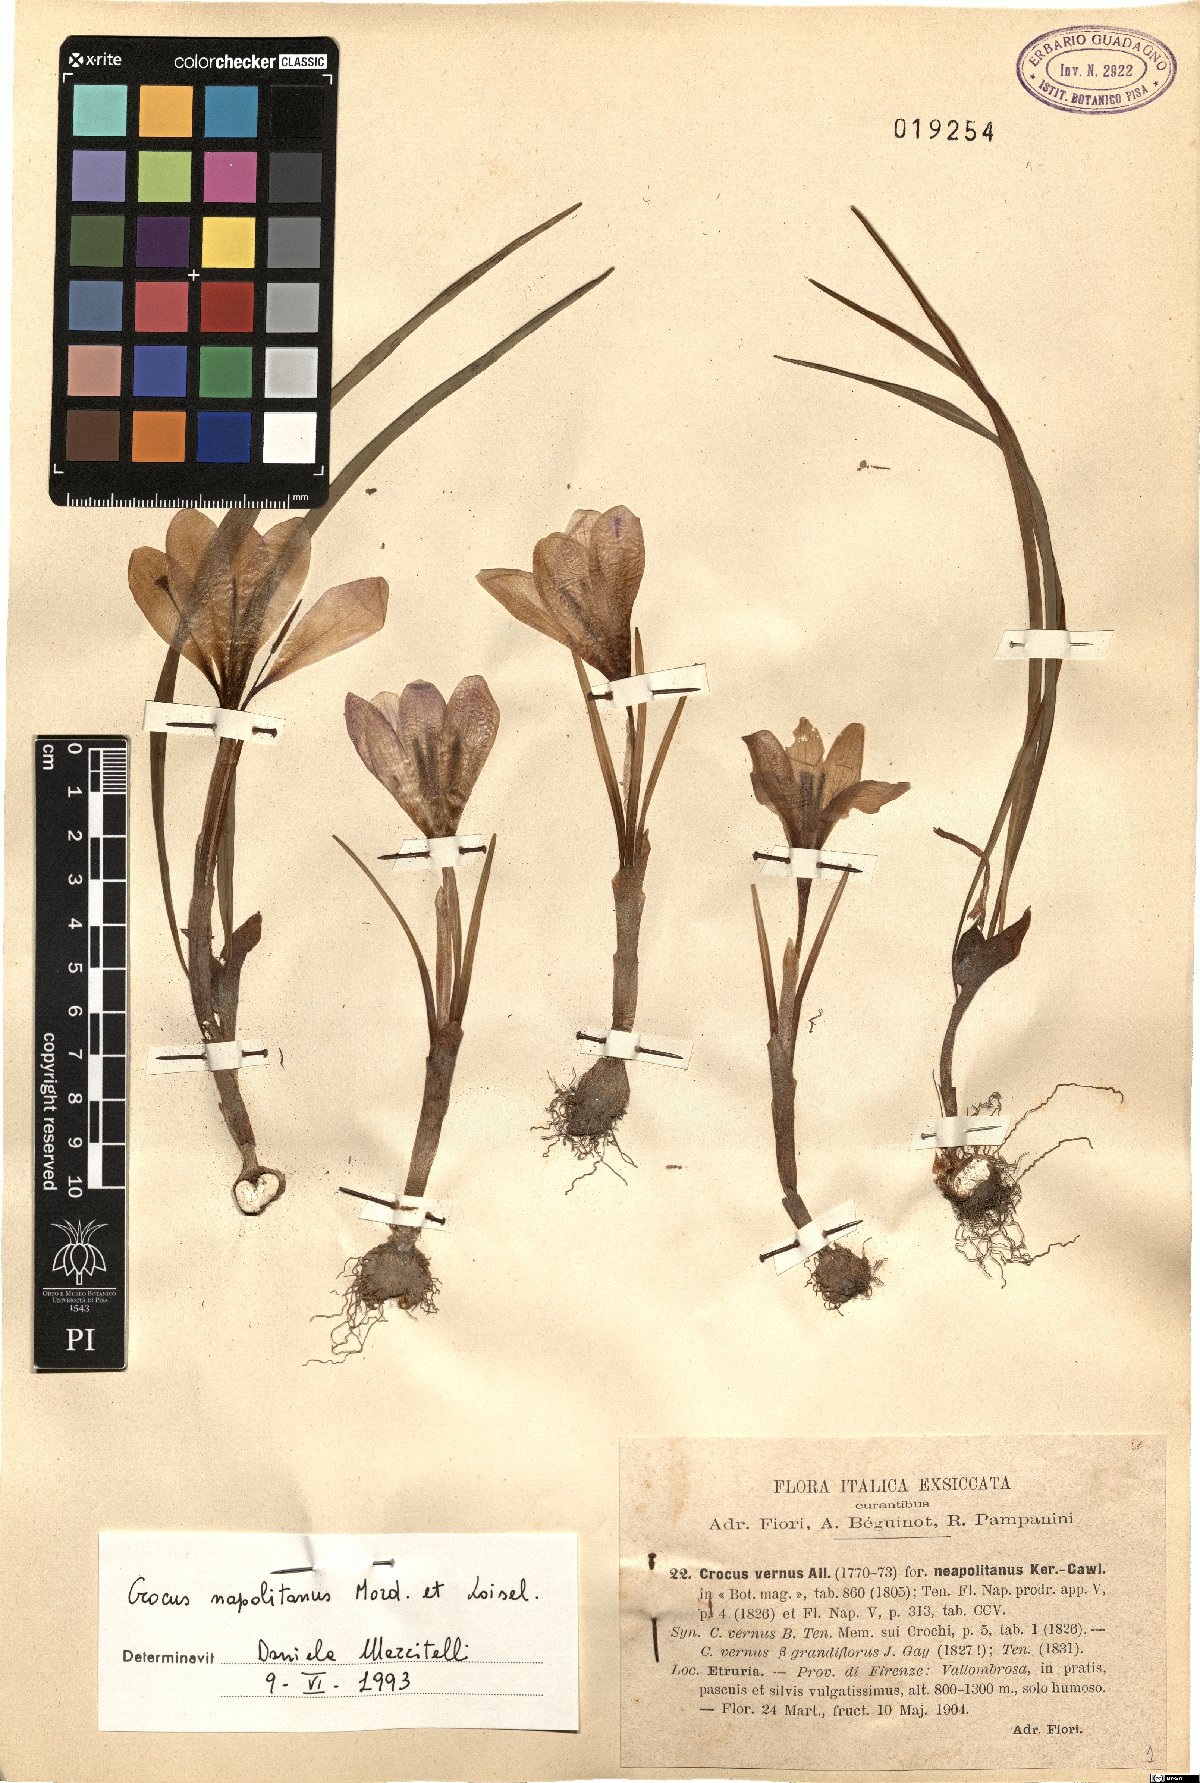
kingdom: Plantae
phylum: Tracheophyta
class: Liliopsida
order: Asparagales
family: Iridaceae
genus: Crocus
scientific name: Crocus neapolitanus
